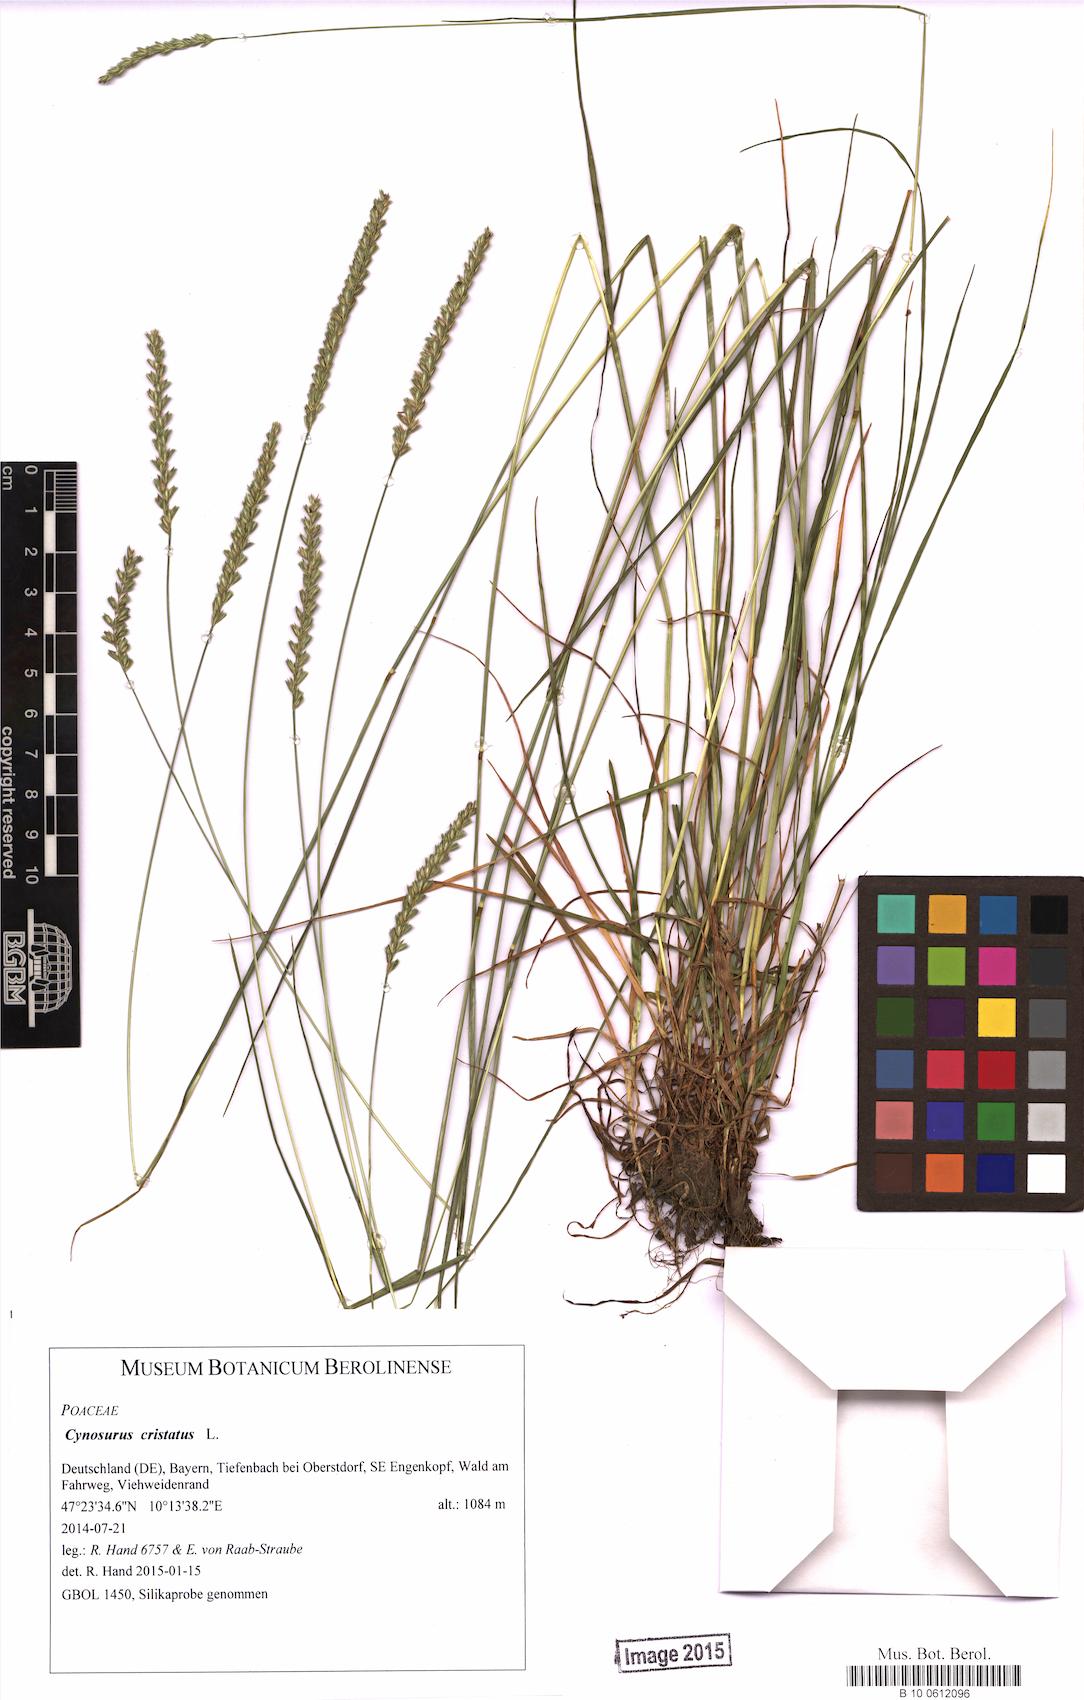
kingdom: Plantae
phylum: Tracheophyta
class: Liliopsida
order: Poales
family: Poaceae
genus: Cynosurus
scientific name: Cynosurus cristatus
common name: Crested dog's-tail
